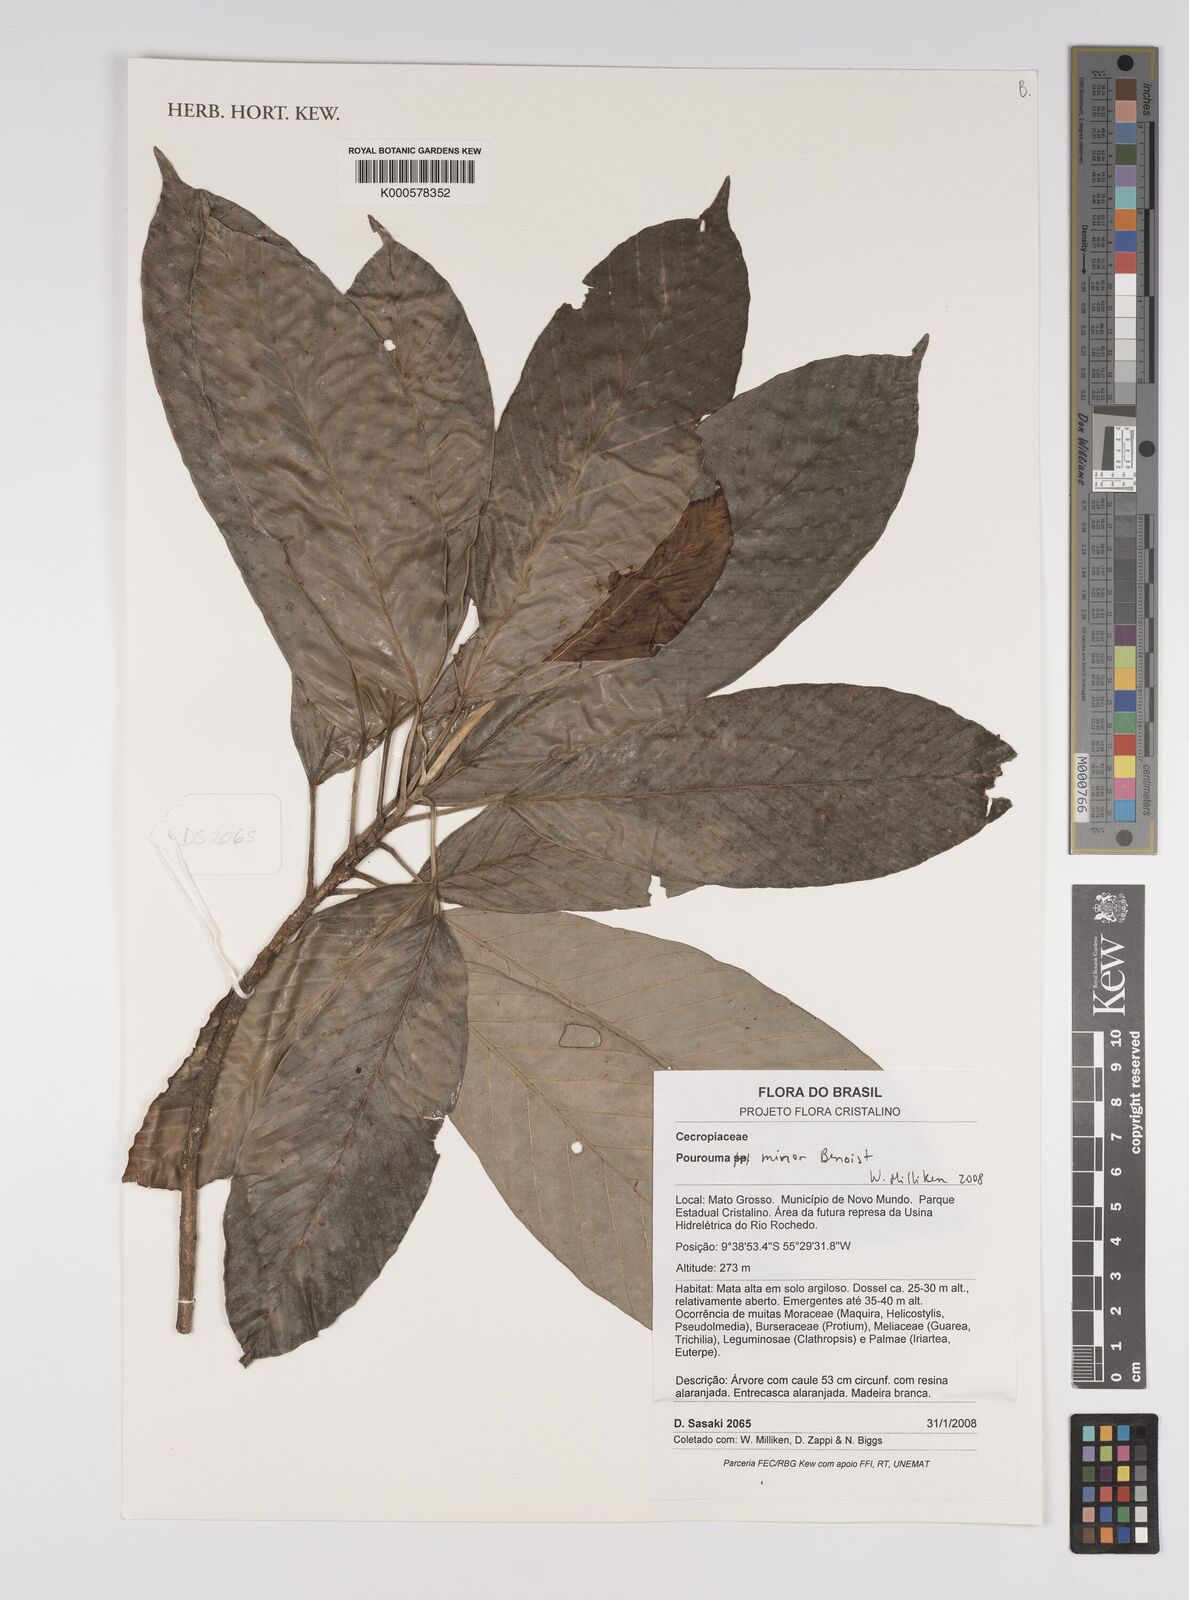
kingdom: Plantae
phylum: Tracheophyta
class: Magnoliopsida
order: Rosales
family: Urticaceae
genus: Pourouma
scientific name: Pourouma minor
